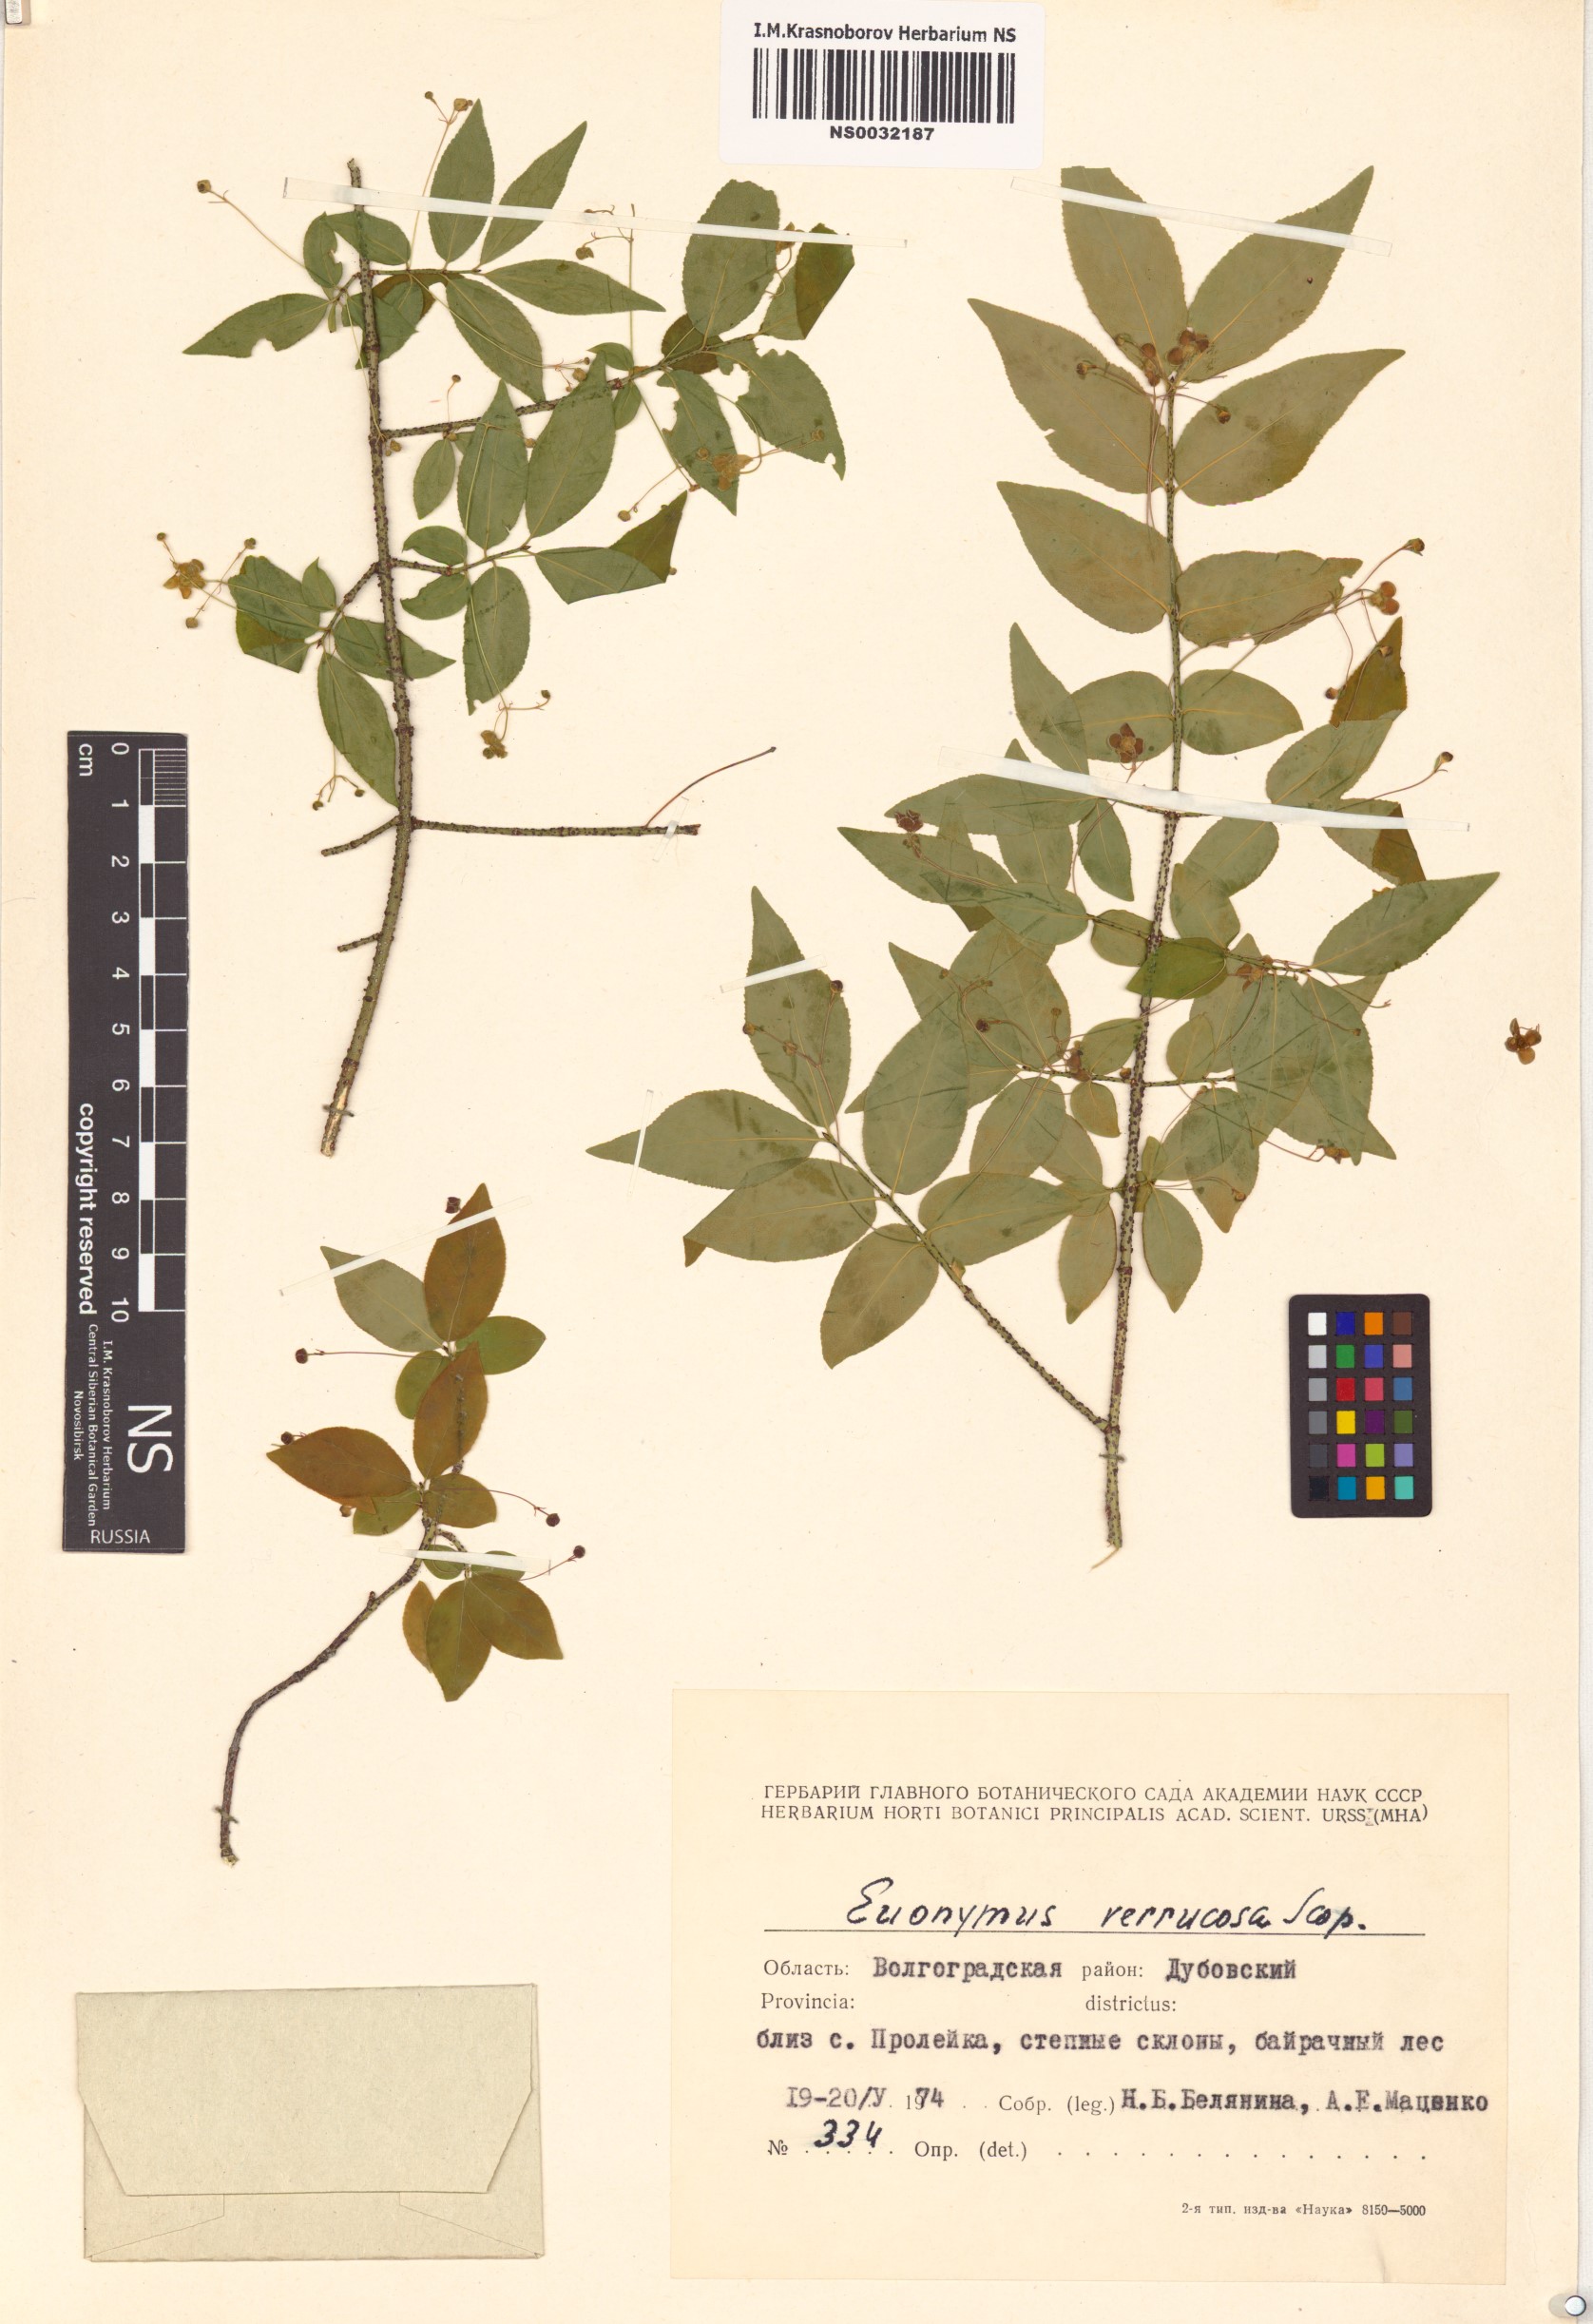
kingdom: Plantae
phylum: Tracheophyta
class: Magnoliopsida
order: Celastrales
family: Celastraceae
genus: Euonymus
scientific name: Euonymus verrucosus
